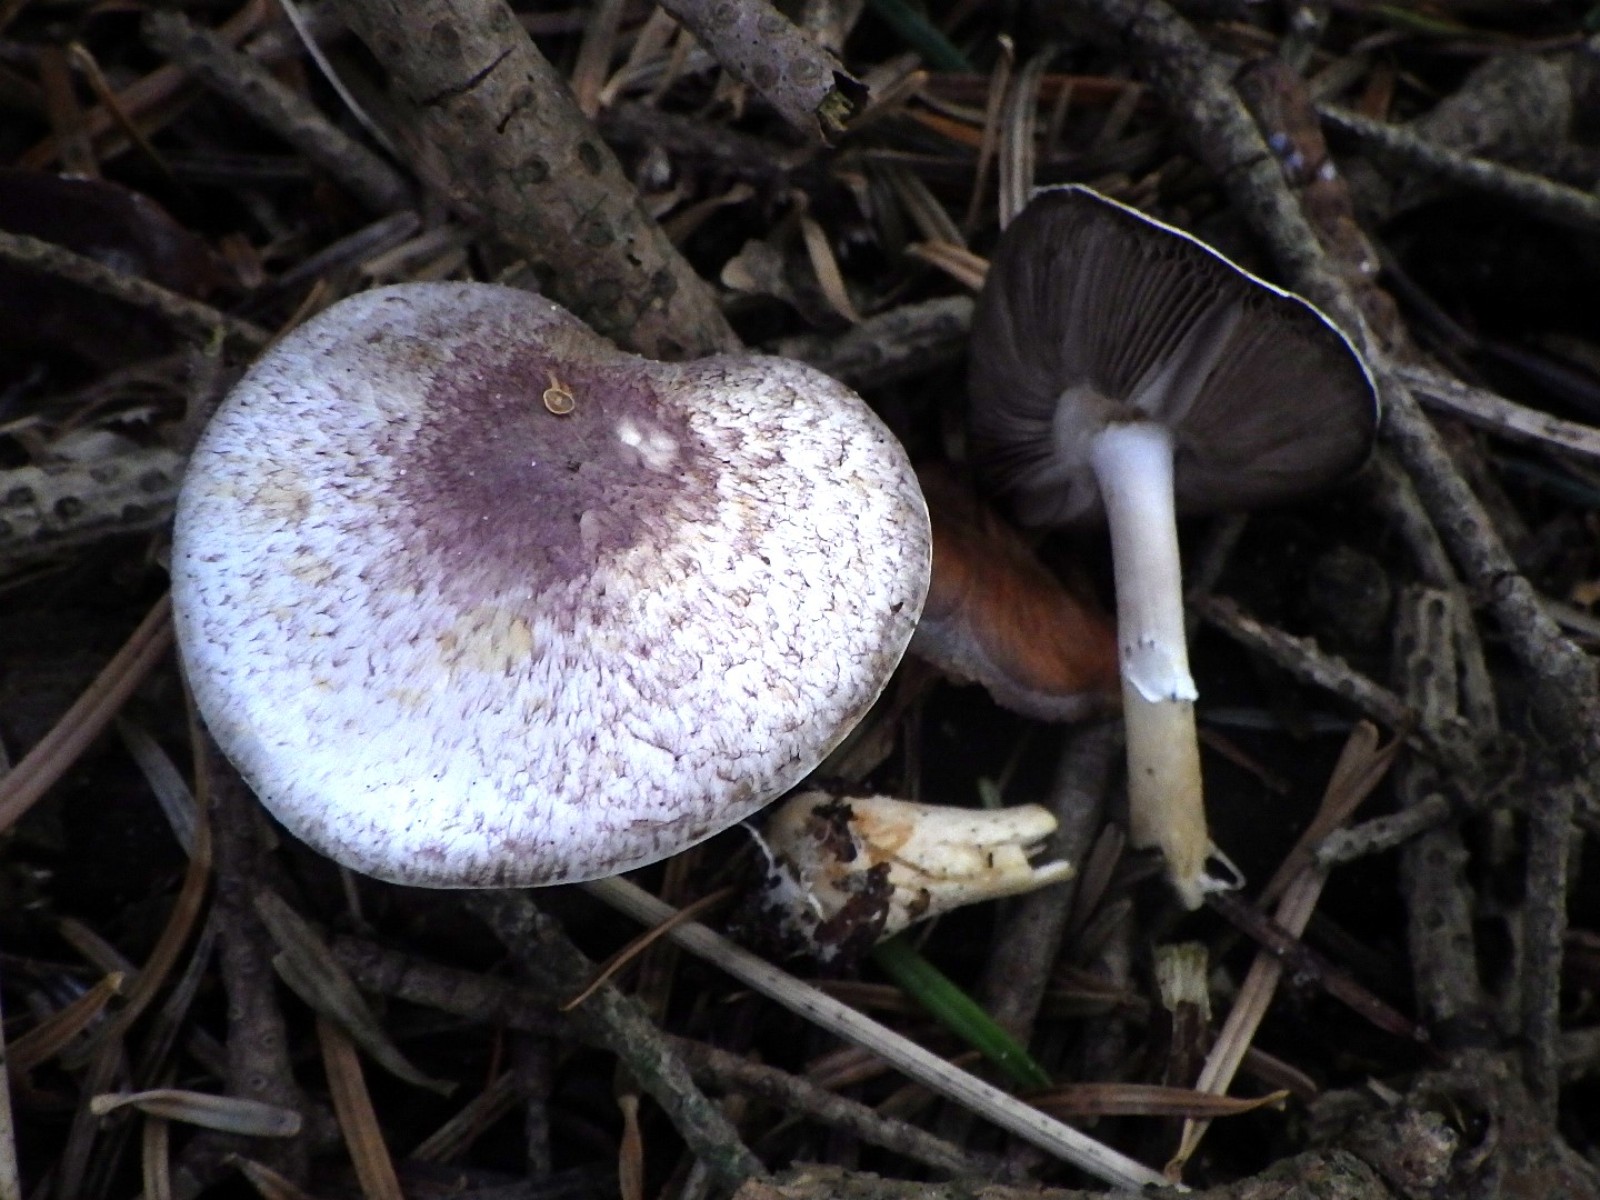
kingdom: Fungi
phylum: Basidiomycota
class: Agaricomycetes
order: Agaricales
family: Agaricaceae
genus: Agaricus
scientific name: Agaricus dulcidulus
